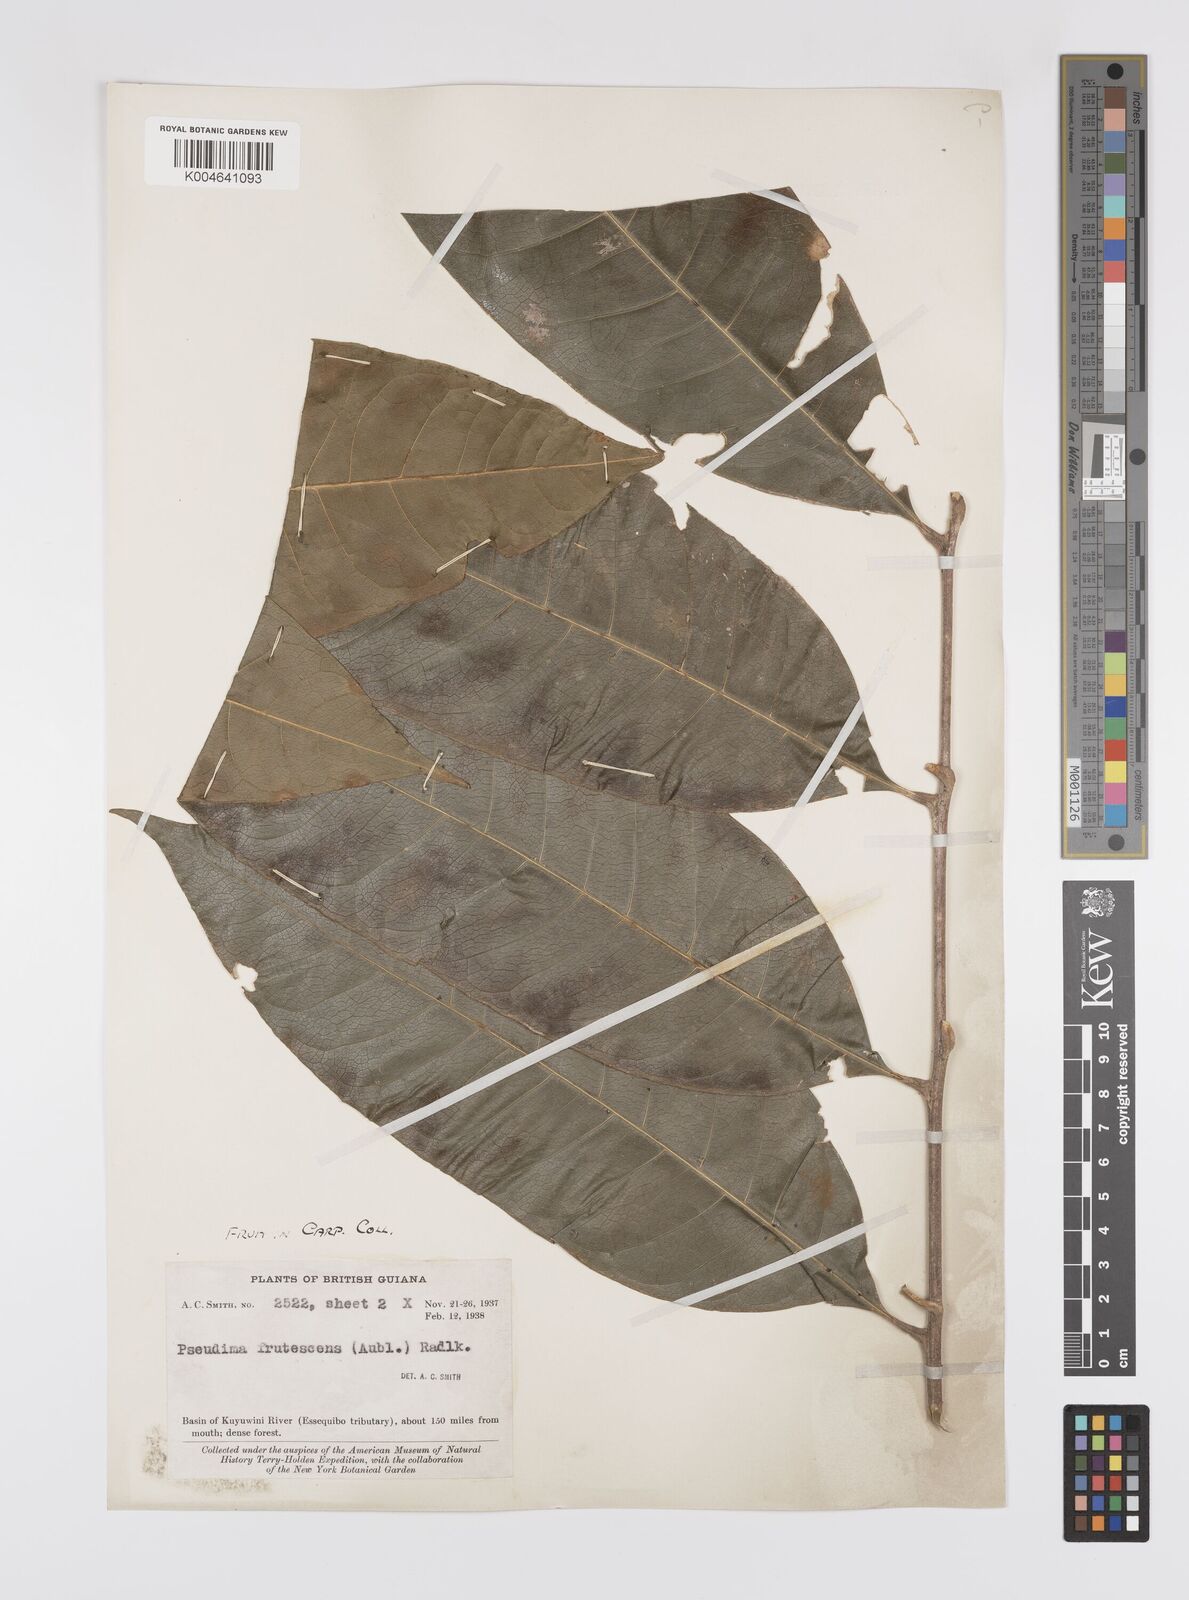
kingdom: Plantae
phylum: Tracheophyta
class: Magnoliopsida
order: Sapindales
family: Sapindaceae
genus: Pseudima
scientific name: Pseudima frutescens
